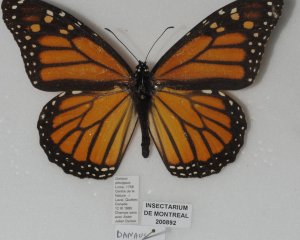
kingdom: Animalia
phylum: Arthropoda
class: Insecta
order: Lepidoptera
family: Nymphalidae
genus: Danaus
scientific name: Danaus plexippus
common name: Monarch
